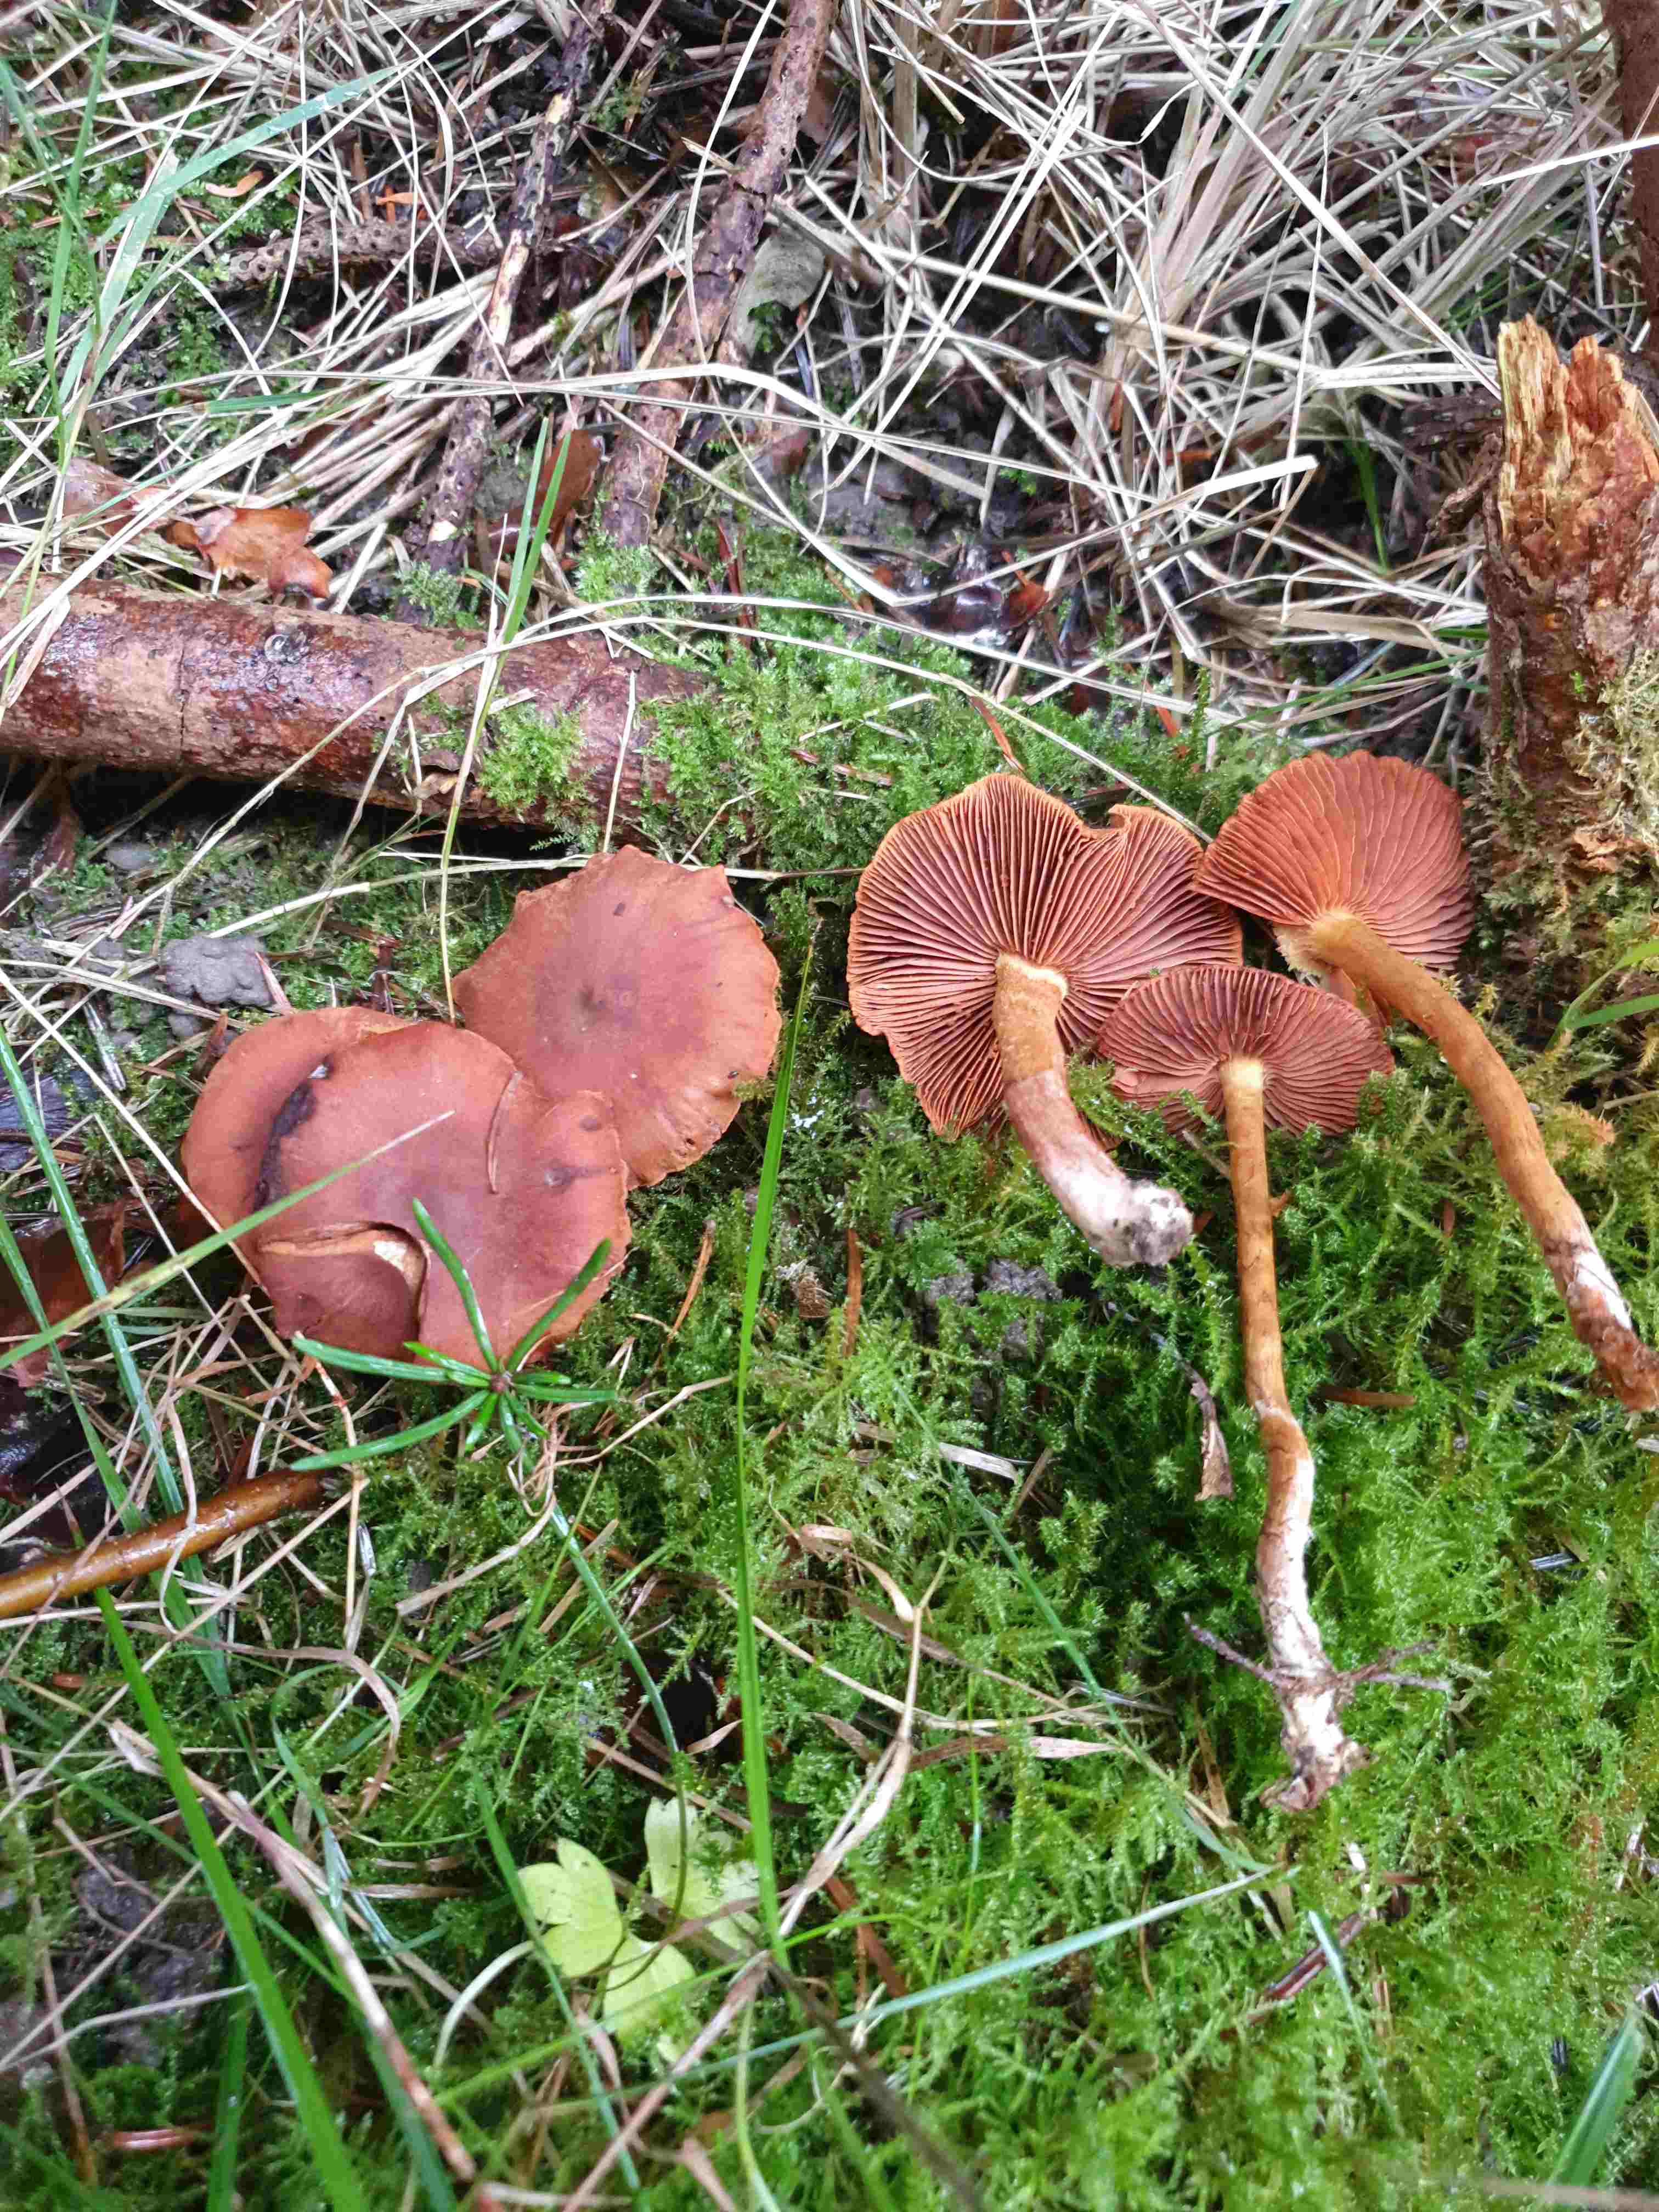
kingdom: Fungi
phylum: Basidiomycota
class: Agaricomycetes
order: Agaricales
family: Cortinariaceae
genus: Cortinarius
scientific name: Cortinarius
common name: cinnoberbladet slørhat
